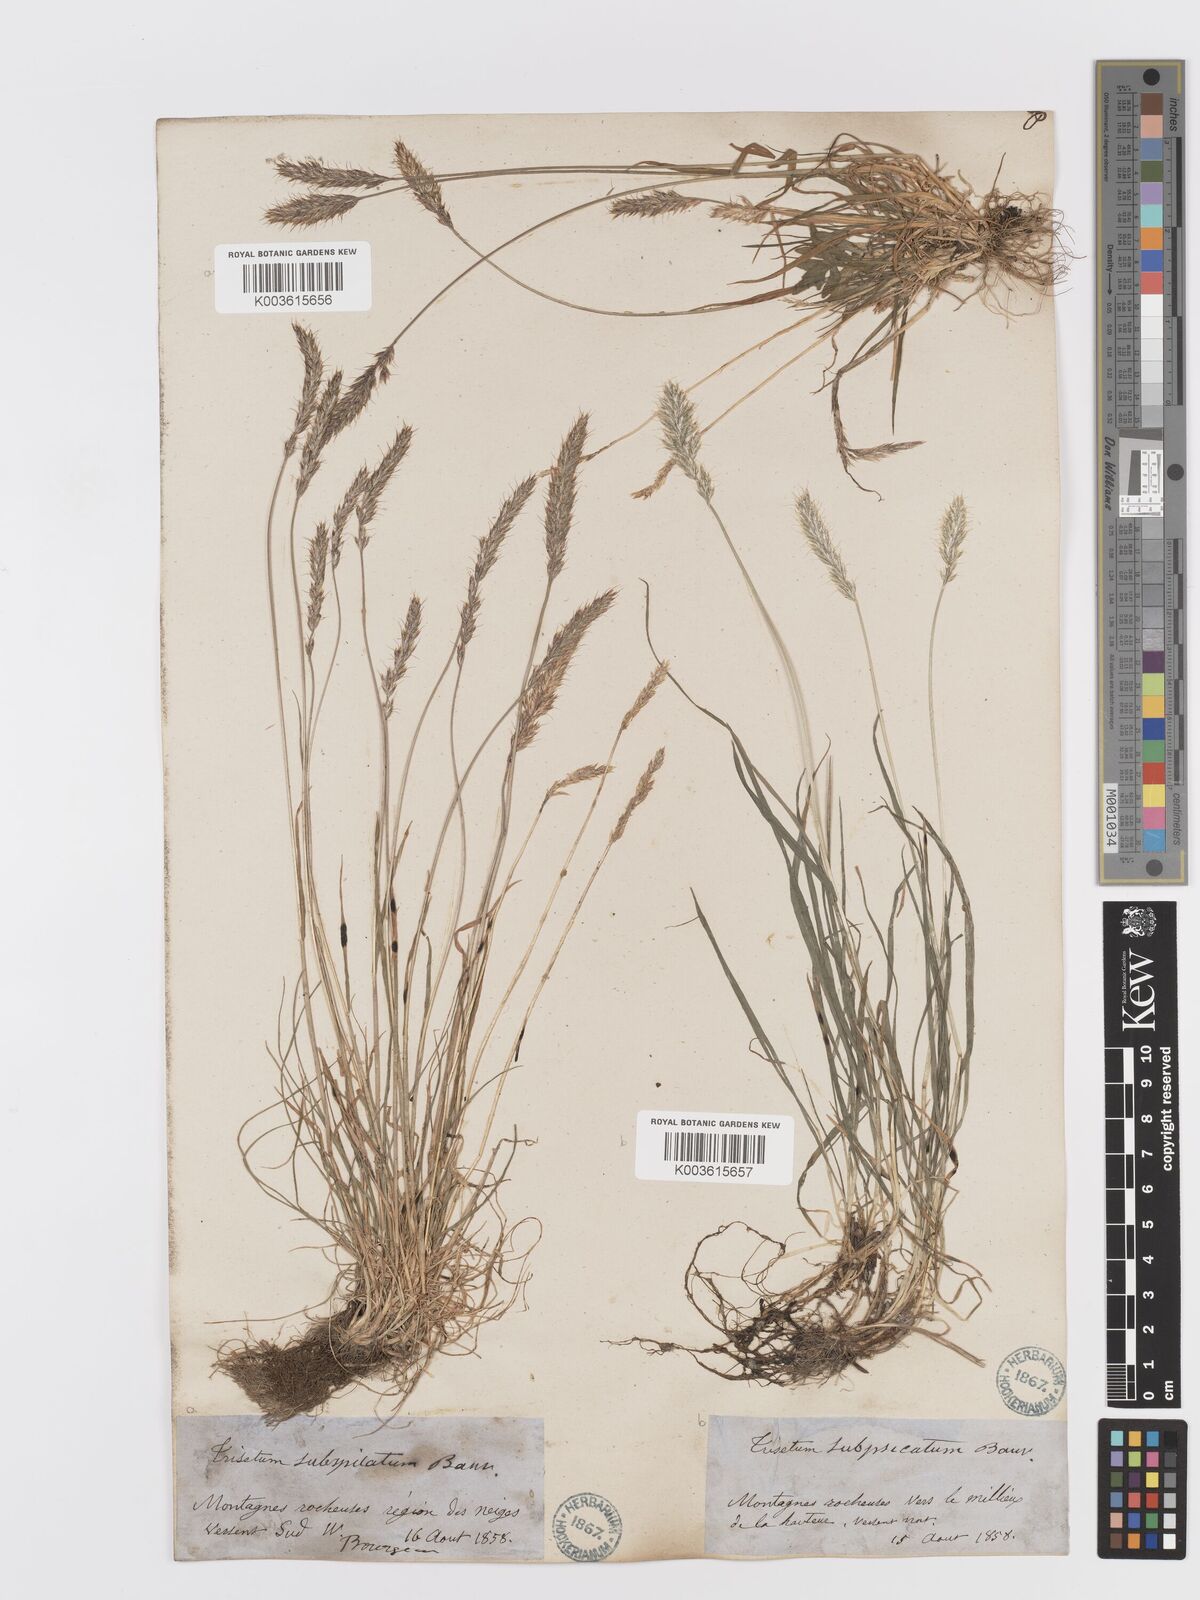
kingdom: Plantae
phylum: Tracheophyta
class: Liliopsida
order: Poales
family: Poaceae
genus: Koeleria
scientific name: Koeleria spicata
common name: Mountain trisetum
